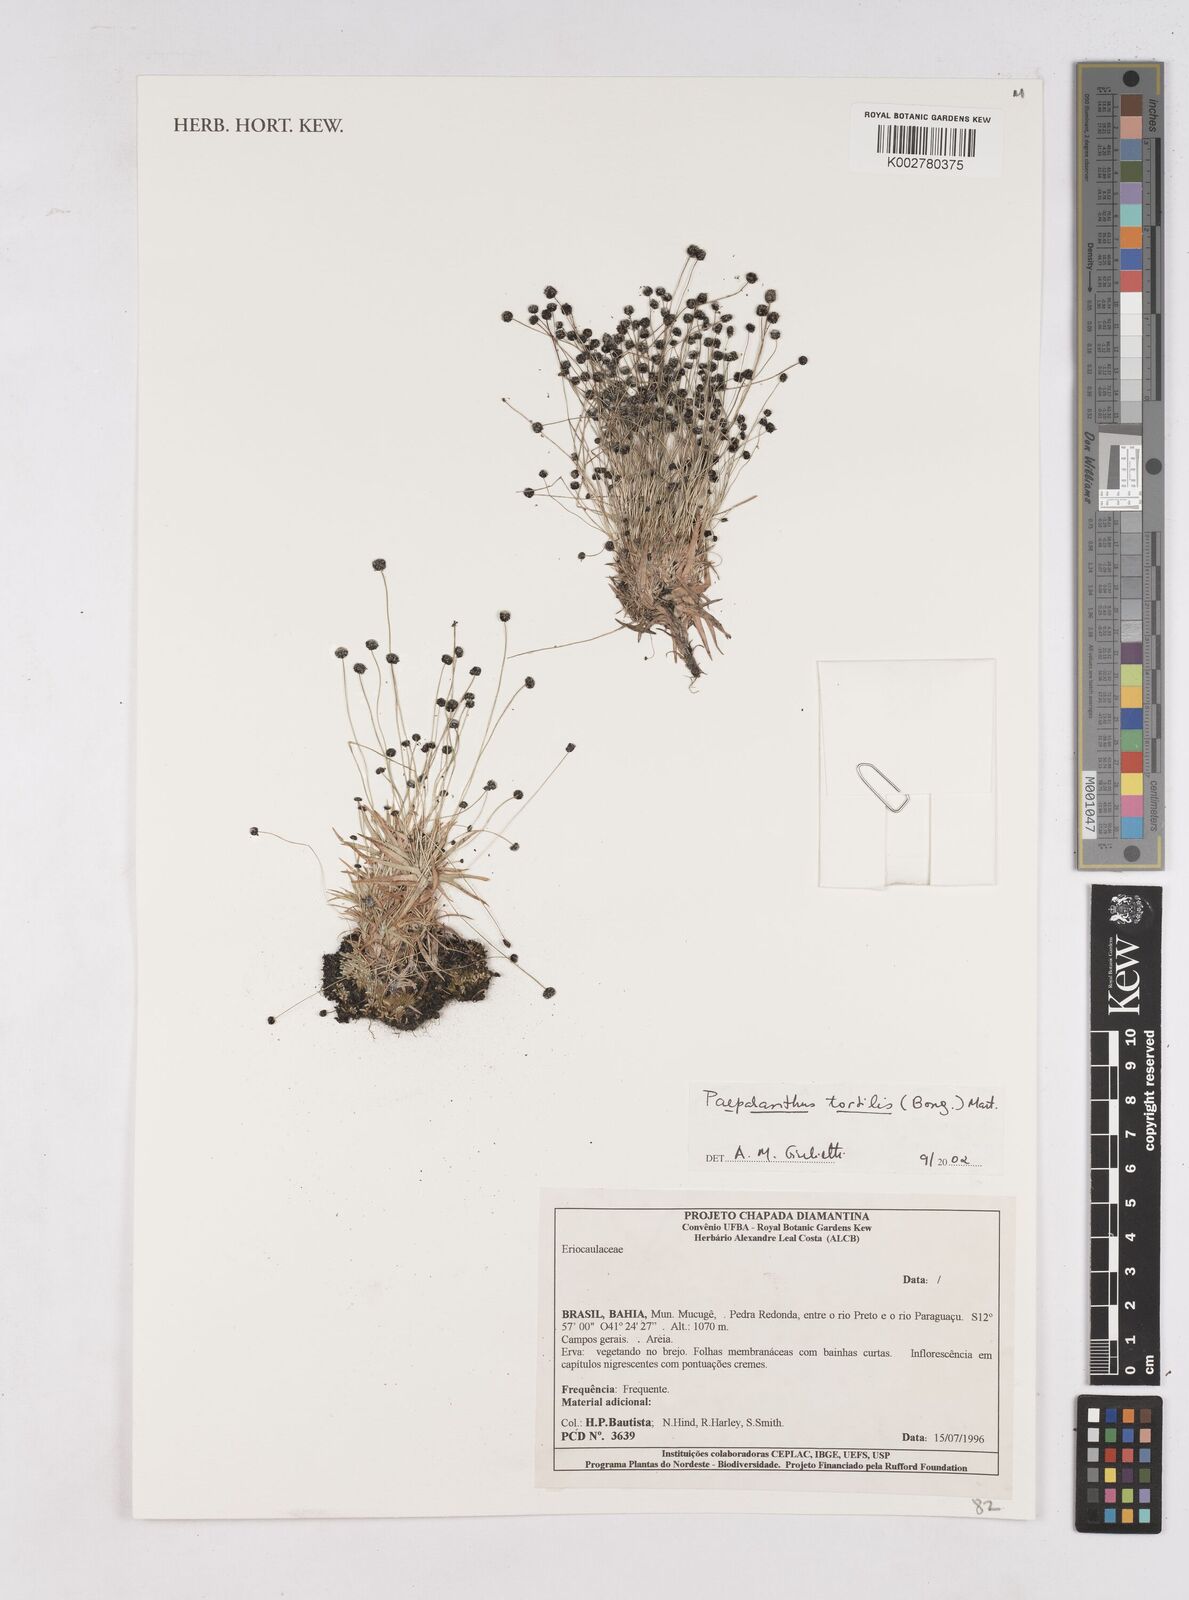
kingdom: Plantae
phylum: Tracheophyta
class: Liliopsida
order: Poales
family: Eriocaulaceae
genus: Paepalanthus
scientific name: Paepalanthus tortilis
